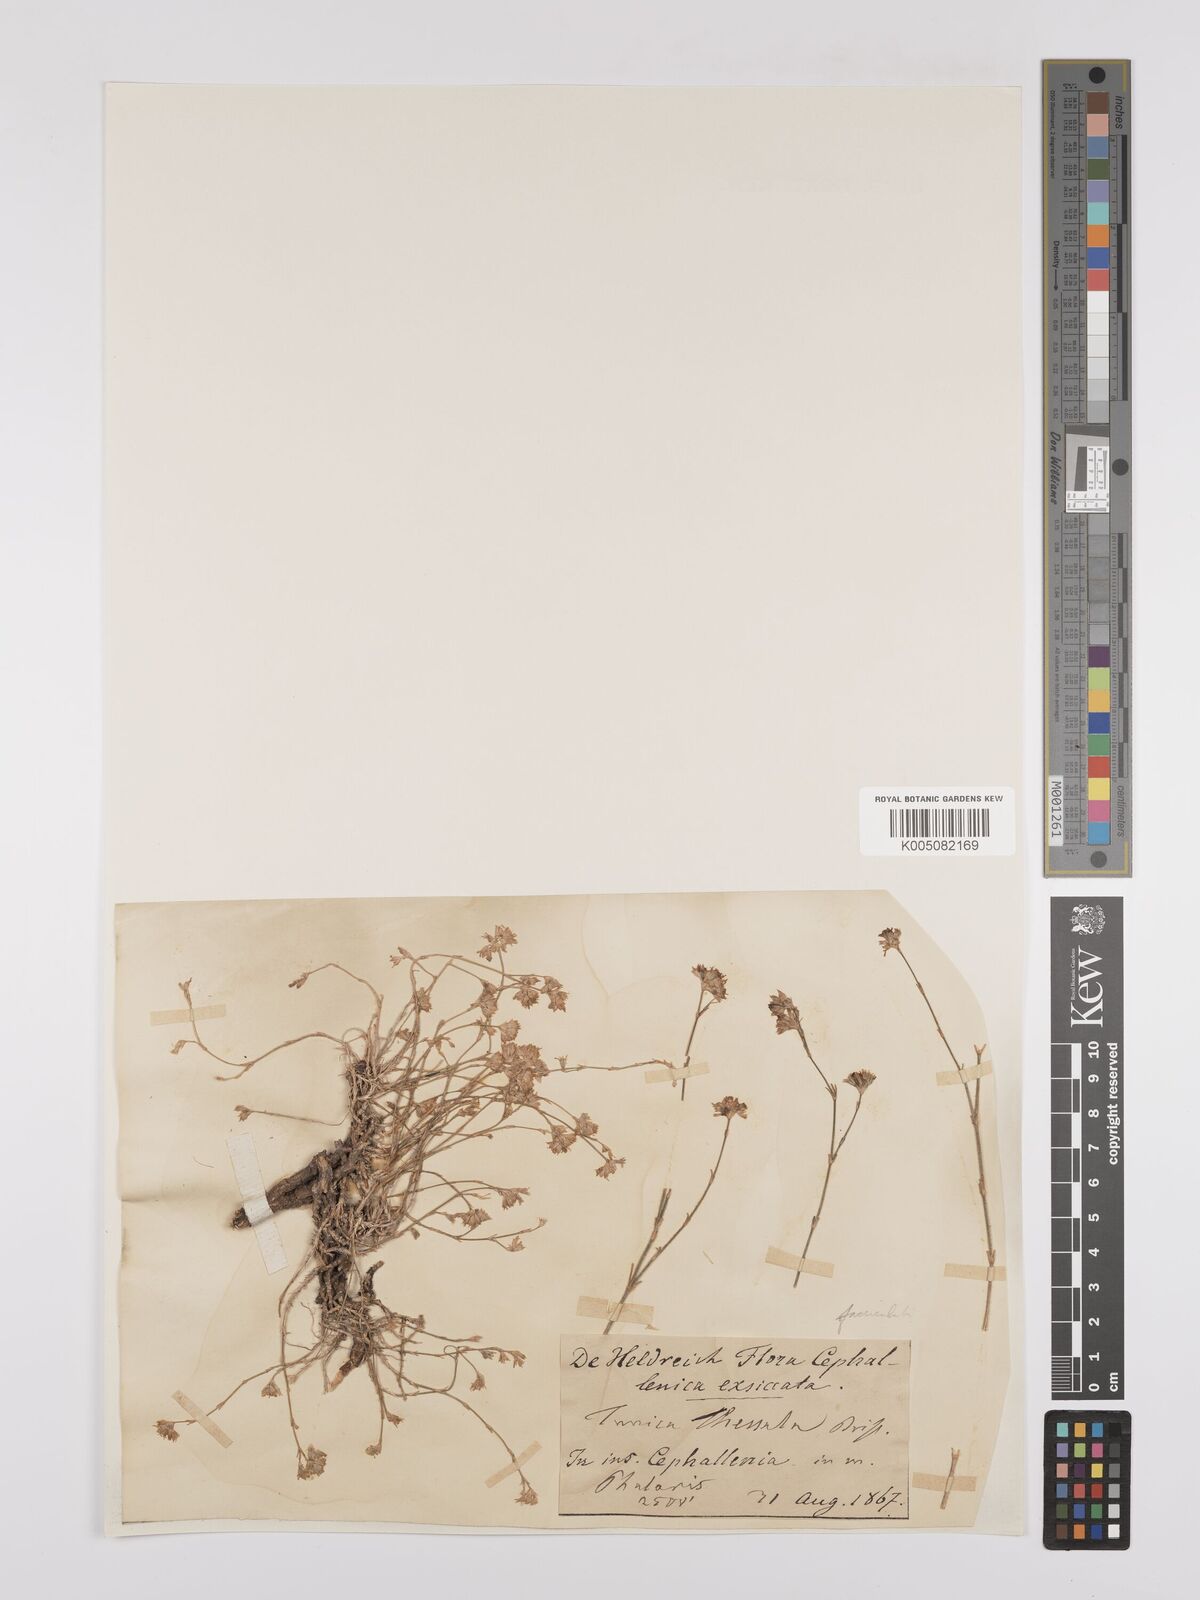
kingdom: Plantae
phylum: Tracheophyta
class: Magnoliopsida
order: Caryophyllales
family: Caryophyllaceae
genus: Petrorhagia
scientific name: Petrorhagia fasciculata
